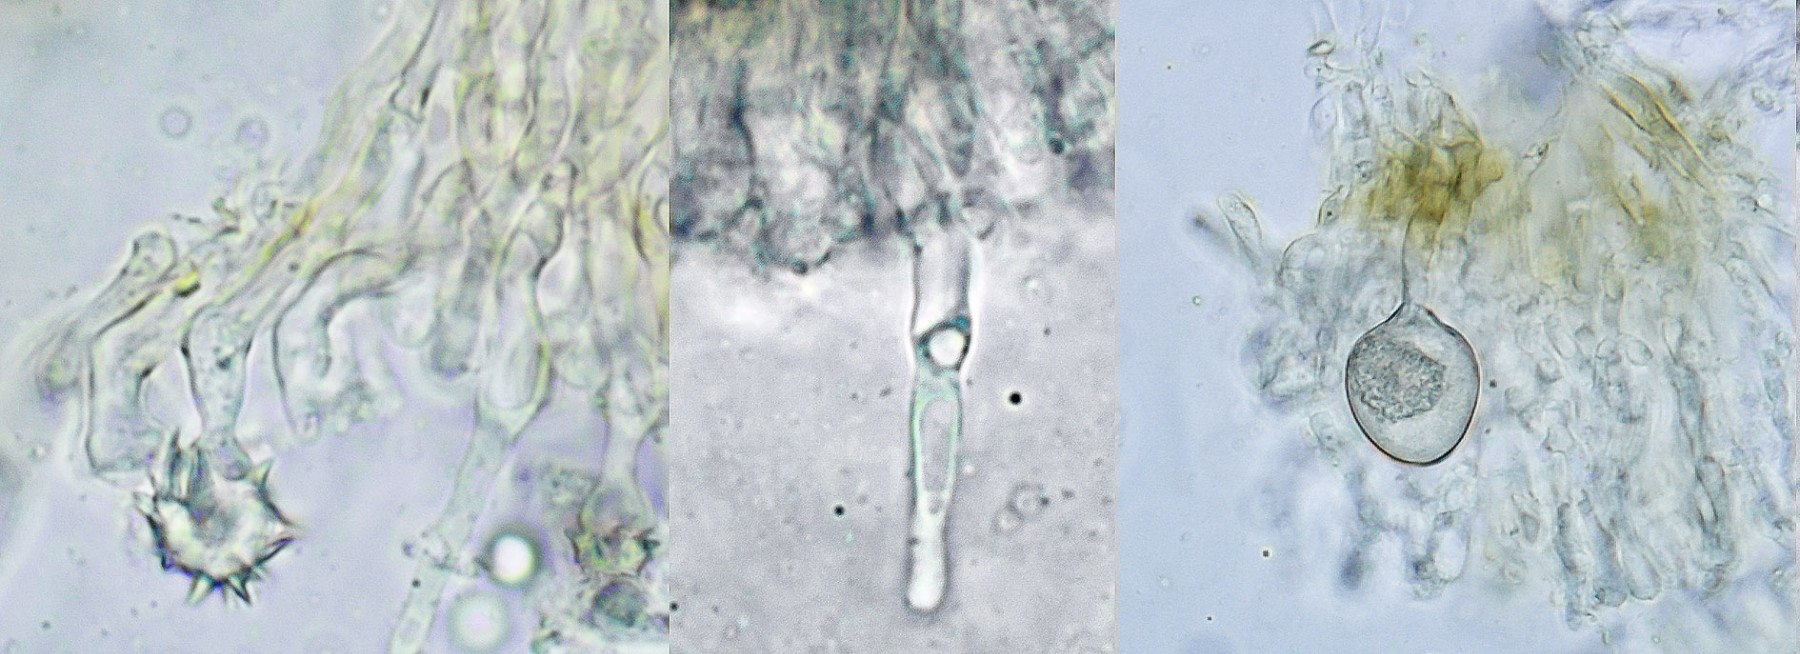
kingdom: Fungi
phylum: Basidiomycota
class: Agaricomycetes
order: Hymenochaetales
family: Rickenellaceae
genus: Resinicium
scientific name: Resinicium bicolor
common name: almindelig vokstand
